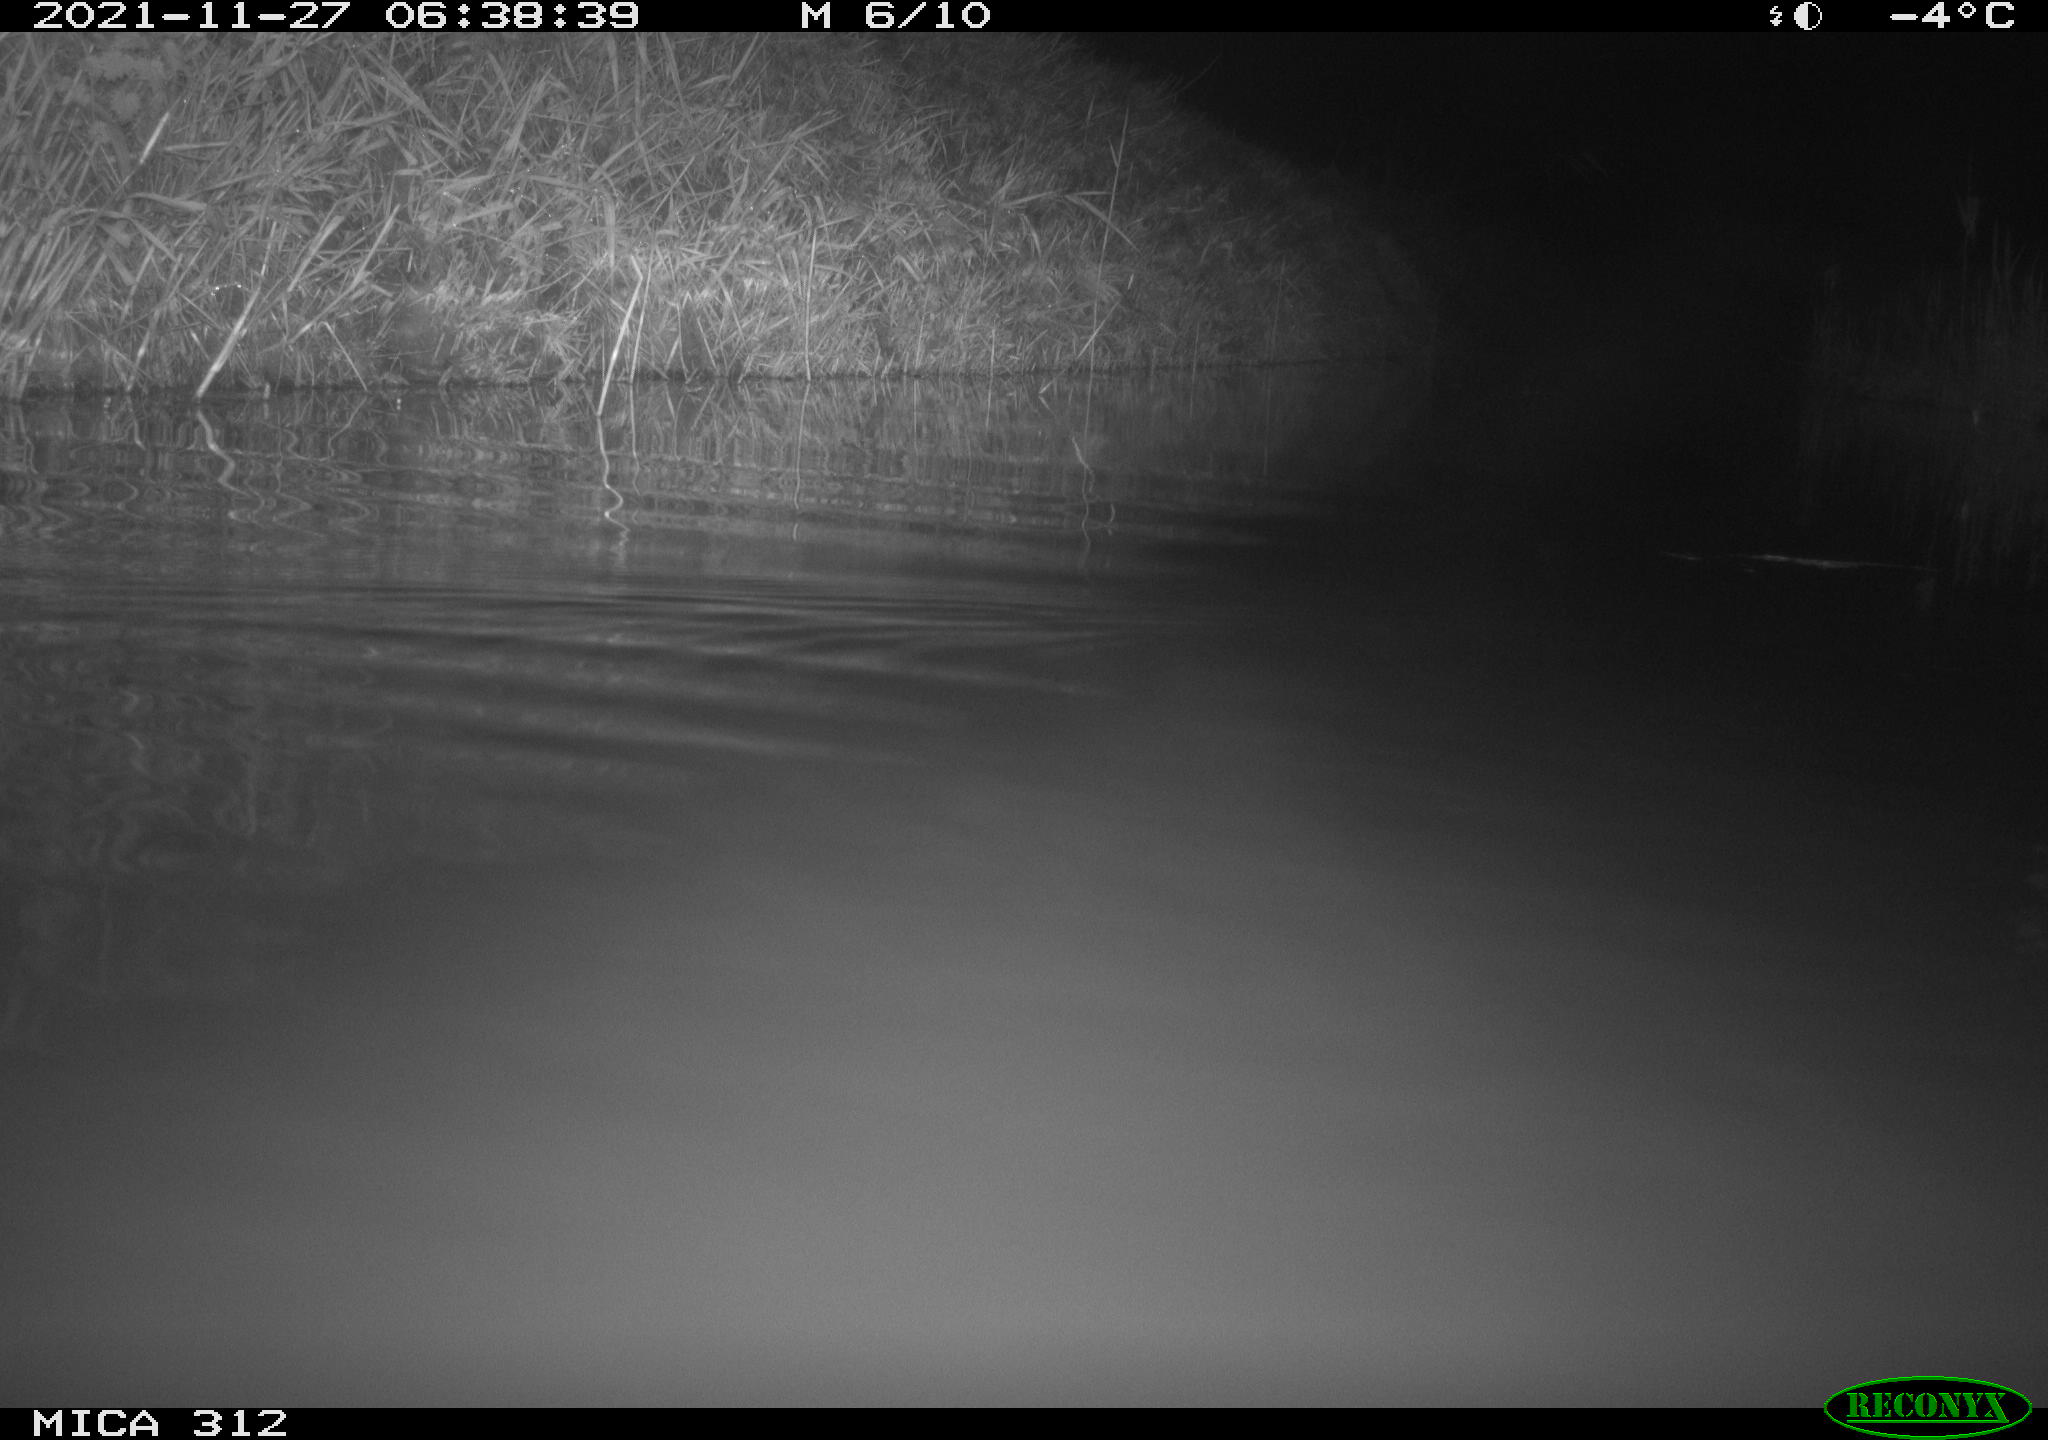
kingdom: Animalia
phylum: Chordata
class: Mammalia
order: Rodentia
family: Muridae
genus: Rattus
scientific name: Rattus norvegicus
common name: Brown rat
